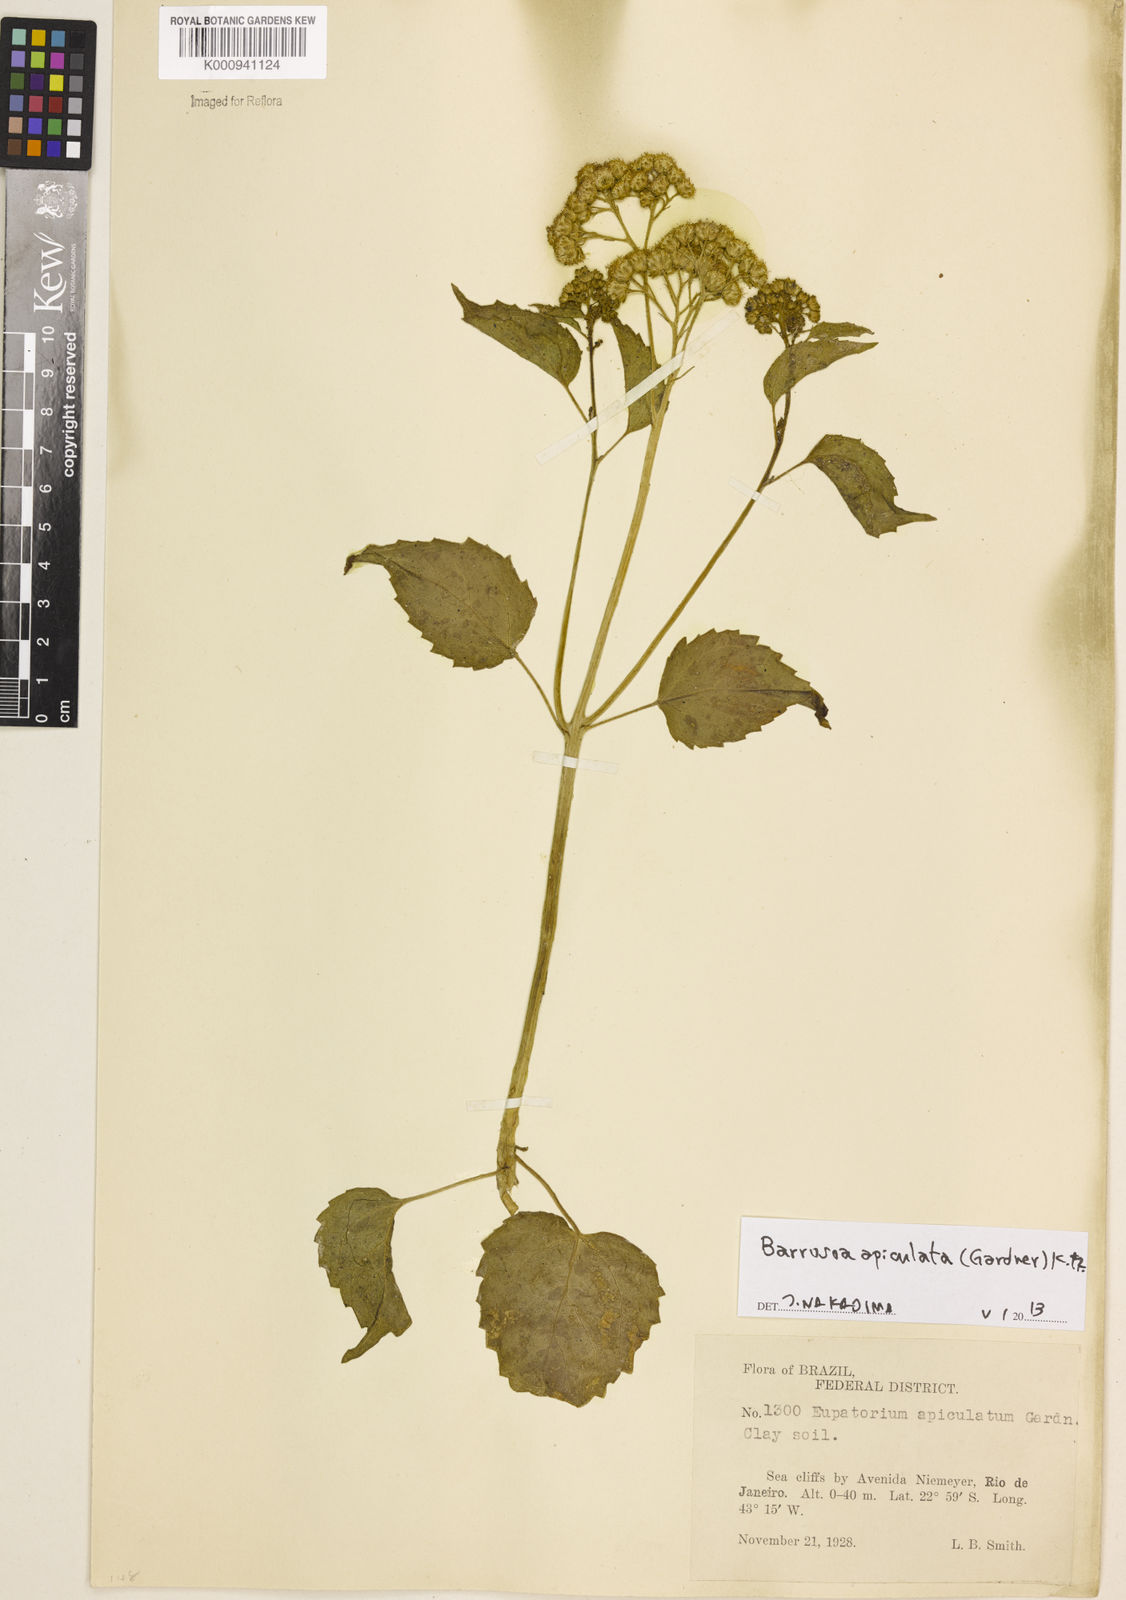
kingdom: Plantae
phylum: Tracheophyta
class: Magnoliopsida
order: Asterales
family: Asteraceae
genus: Barrosoa
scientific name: Barrosoa apiculata
